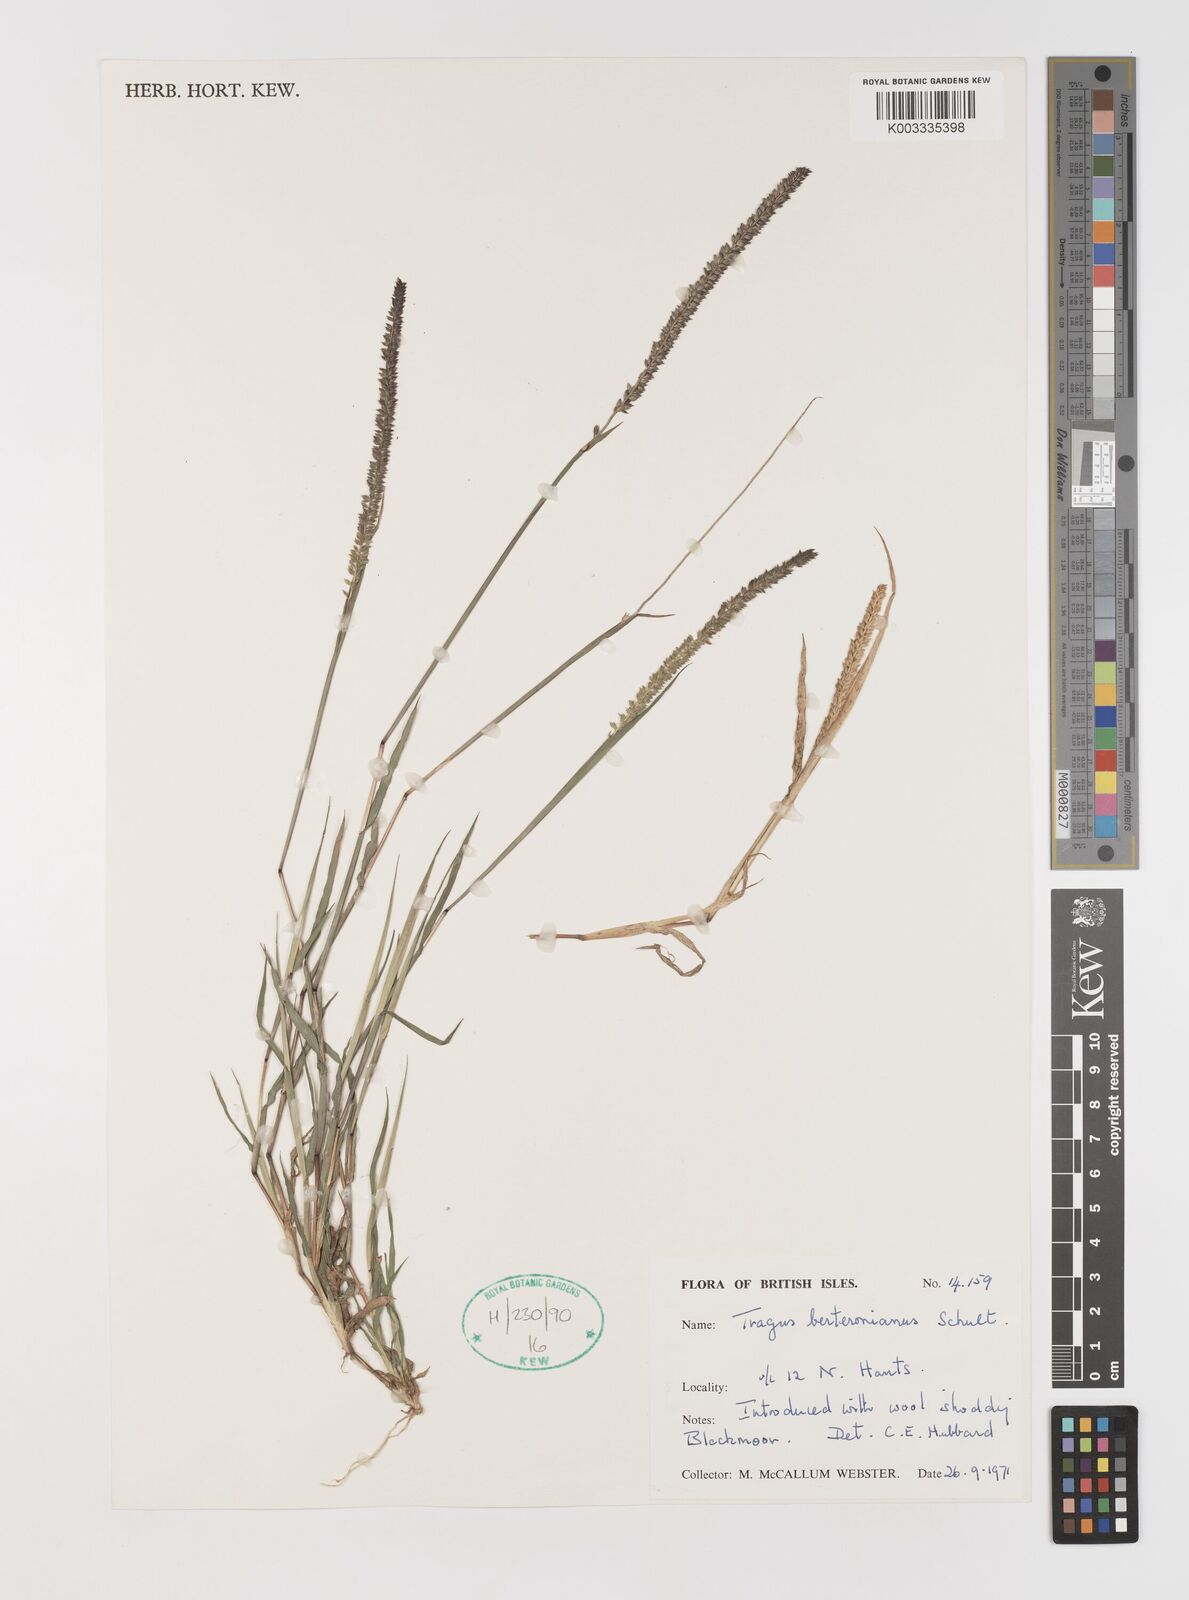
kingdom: Plantae
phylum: Tracheophyta
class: Liliopsida
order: Poales
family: Poaceae
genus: Tragus
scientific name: Tragus berteronianus
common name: African bur-grass
